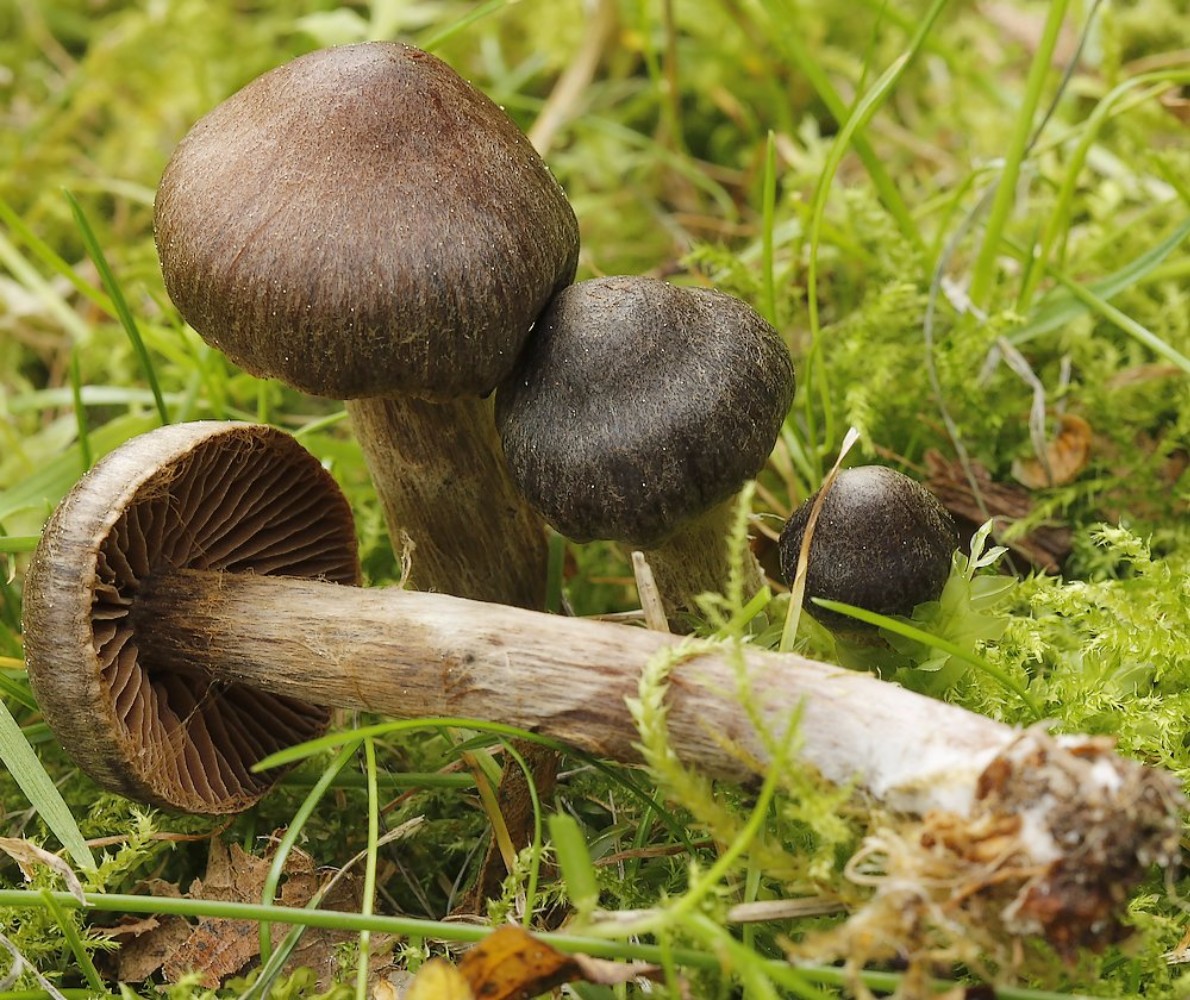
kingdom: Fungi
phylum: Basidiomycota
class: Agaricomycetes
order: Agaricales
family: Cortinariaceae
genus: Cortinarius
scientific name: Cortinarius
